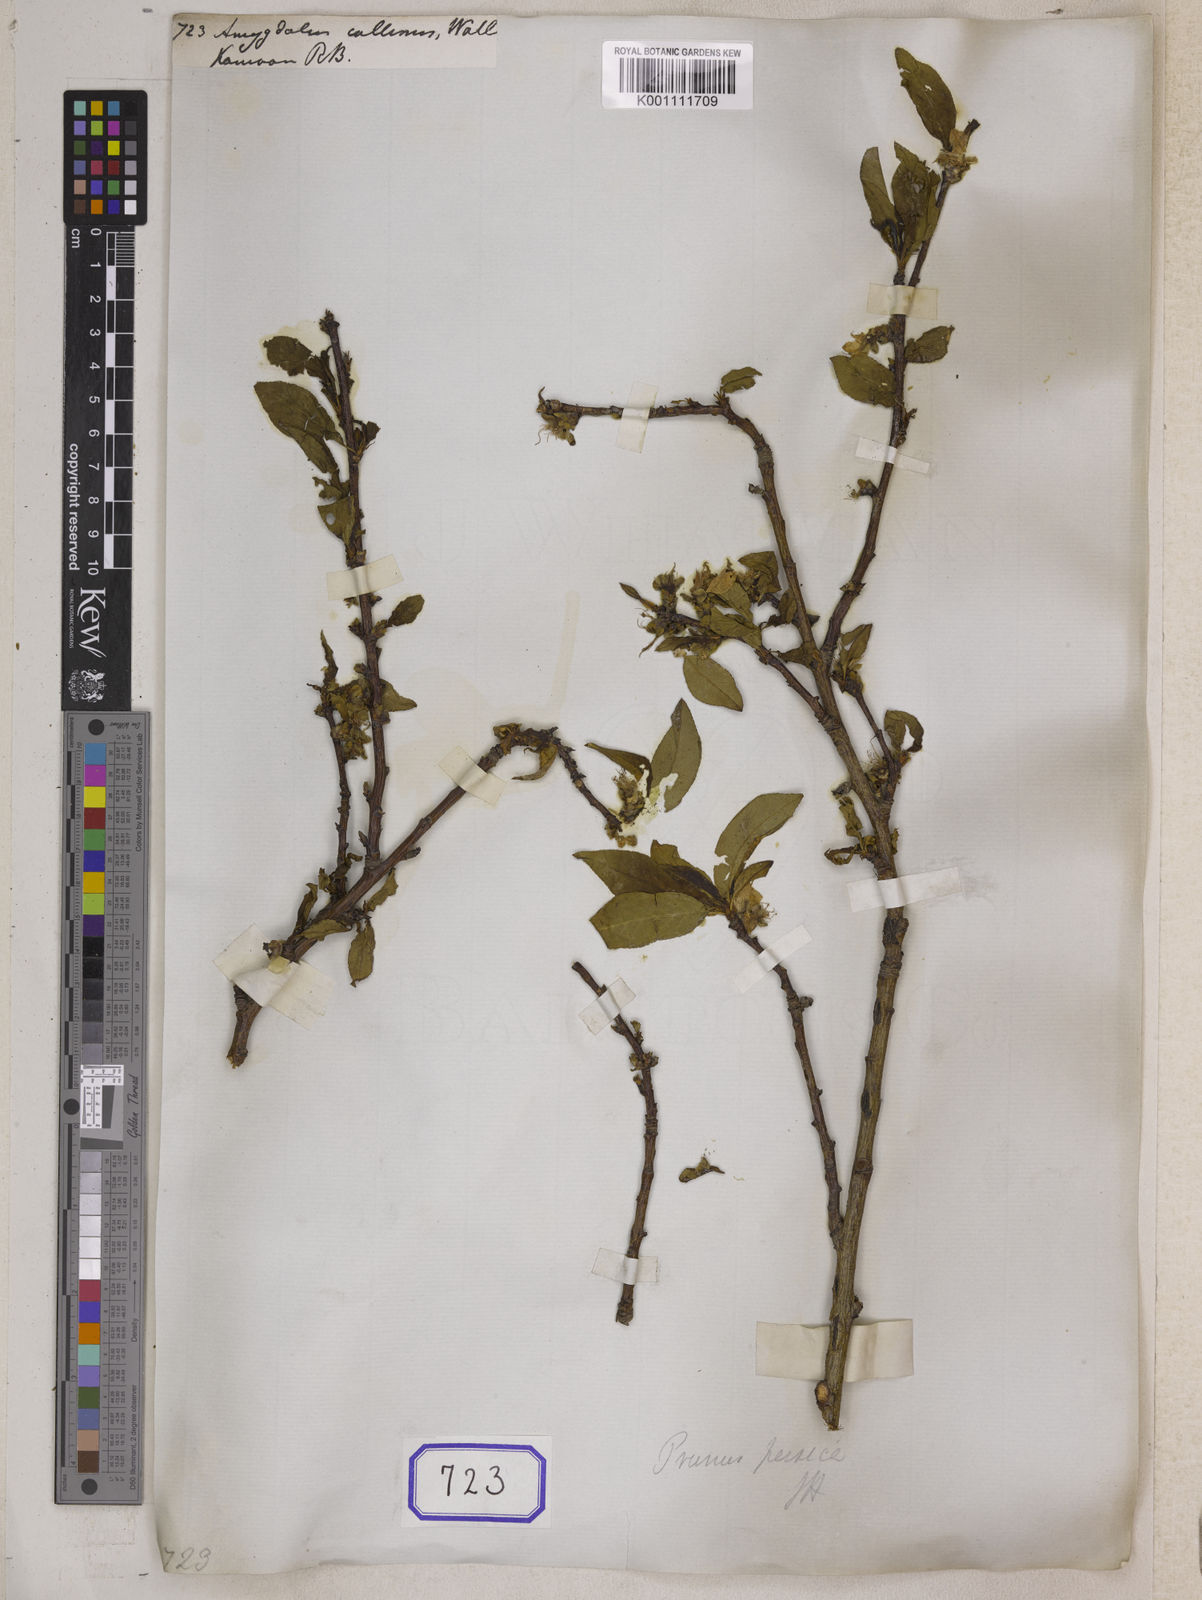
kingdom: Plantae
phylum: Tracheophyta
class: Magnoliopsida
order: Rosales
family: Rosaceae
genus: Prunus
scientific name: Prunus Amygdalus collinus
